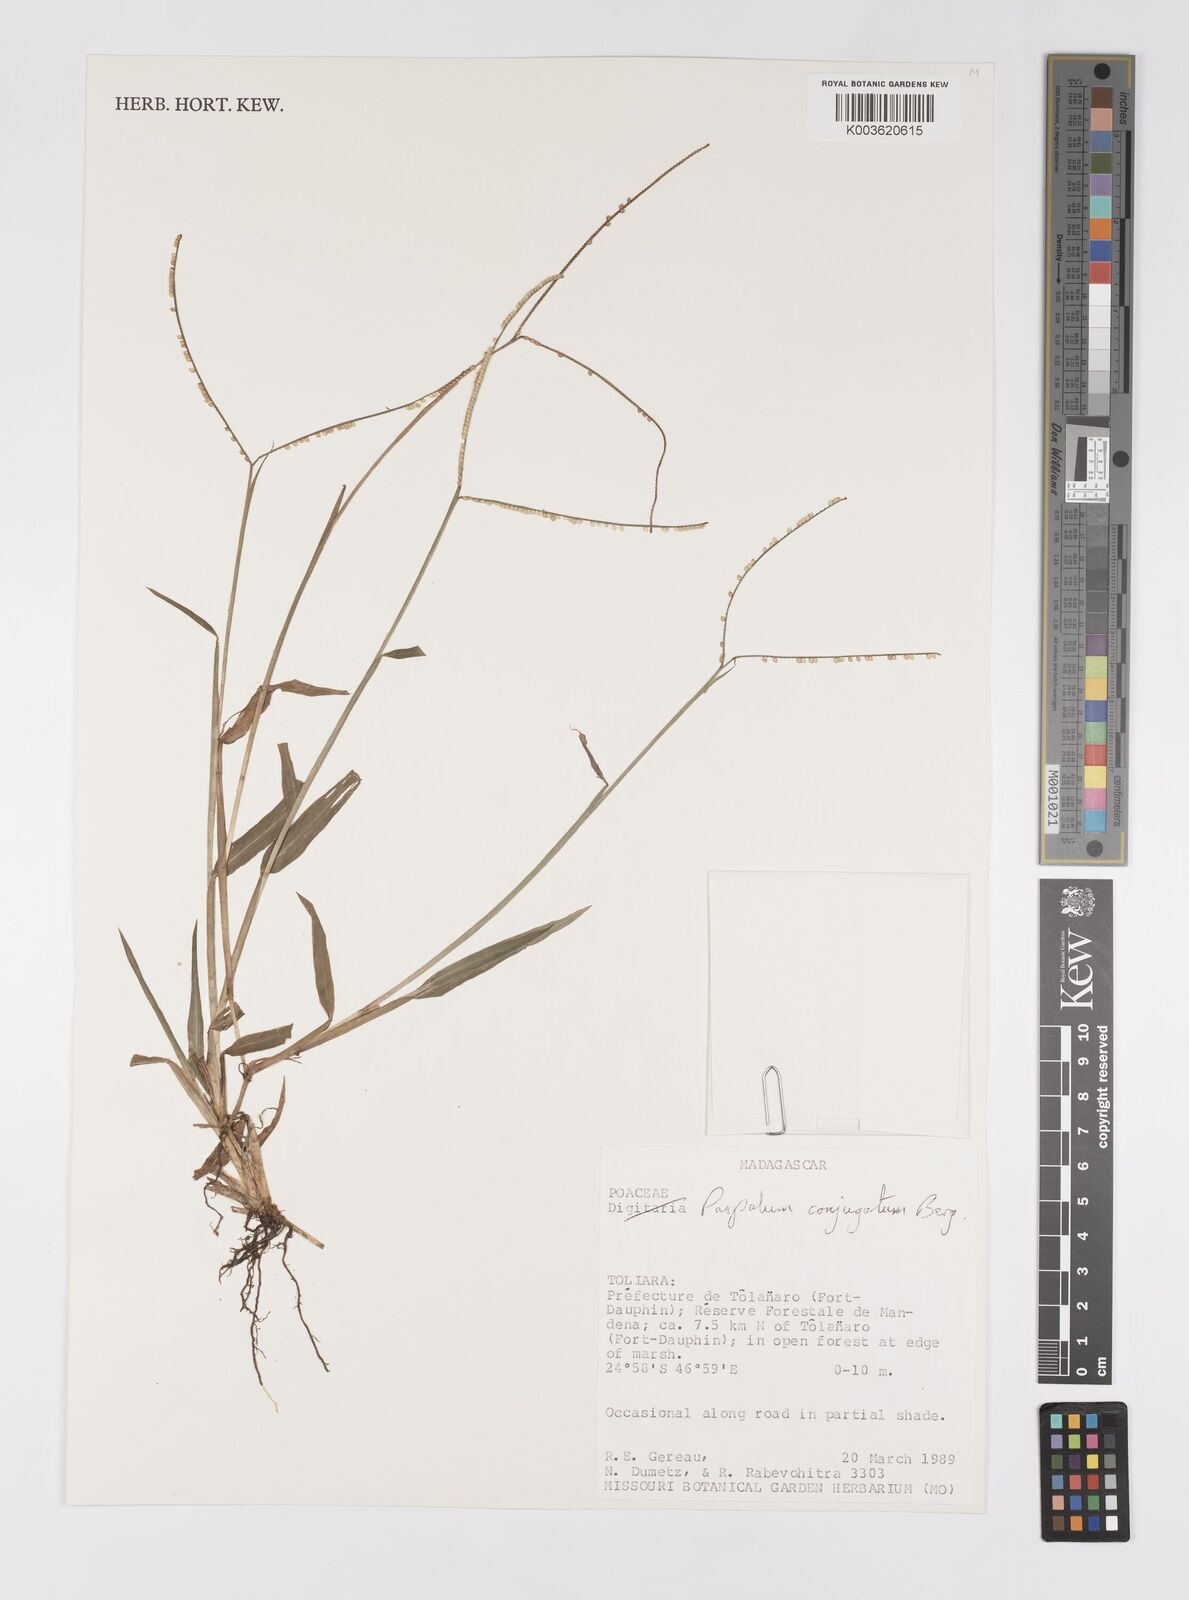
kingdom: Plantae
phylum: Tracheophyta
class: Liliopsida
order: Poales
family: Poaceae
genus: Paspalum
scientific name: Paspalum conjugatum
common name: Hilograss
